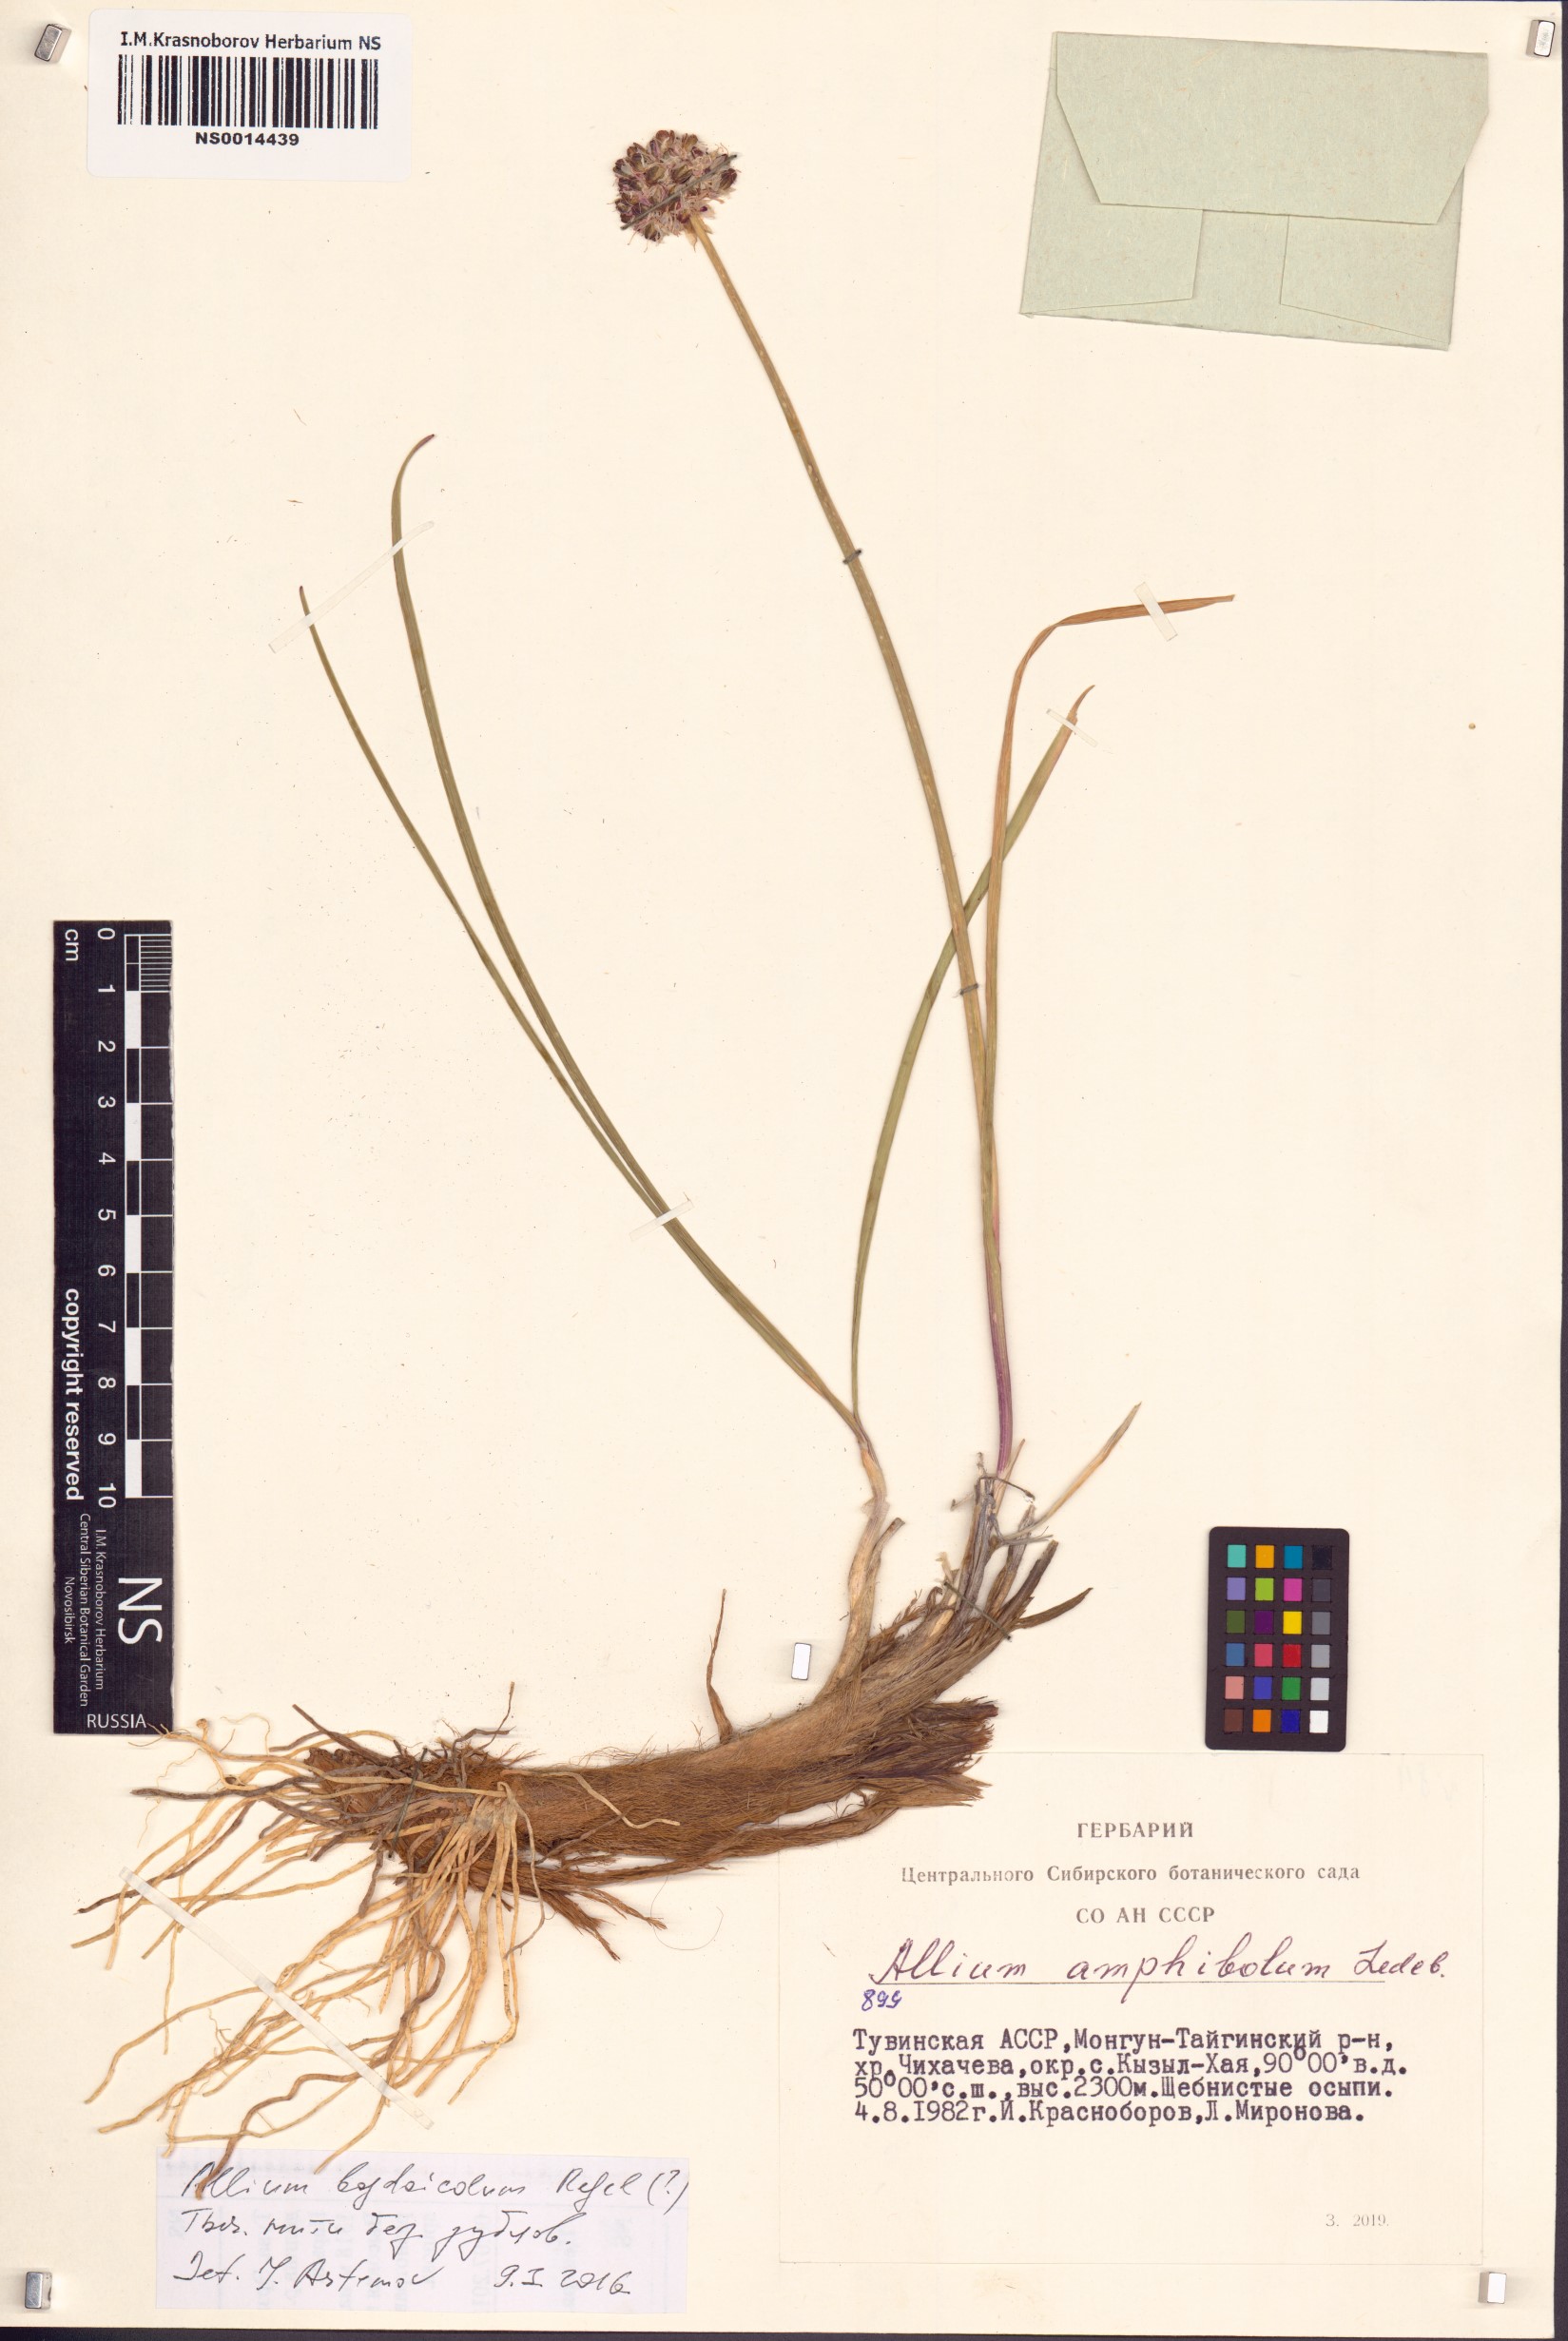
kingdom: Plantae
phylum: Tracheophyta
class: Liliopsida
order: Asparagales
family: Amaryllidaceae
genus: Allium
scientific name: Allium schrenkii
